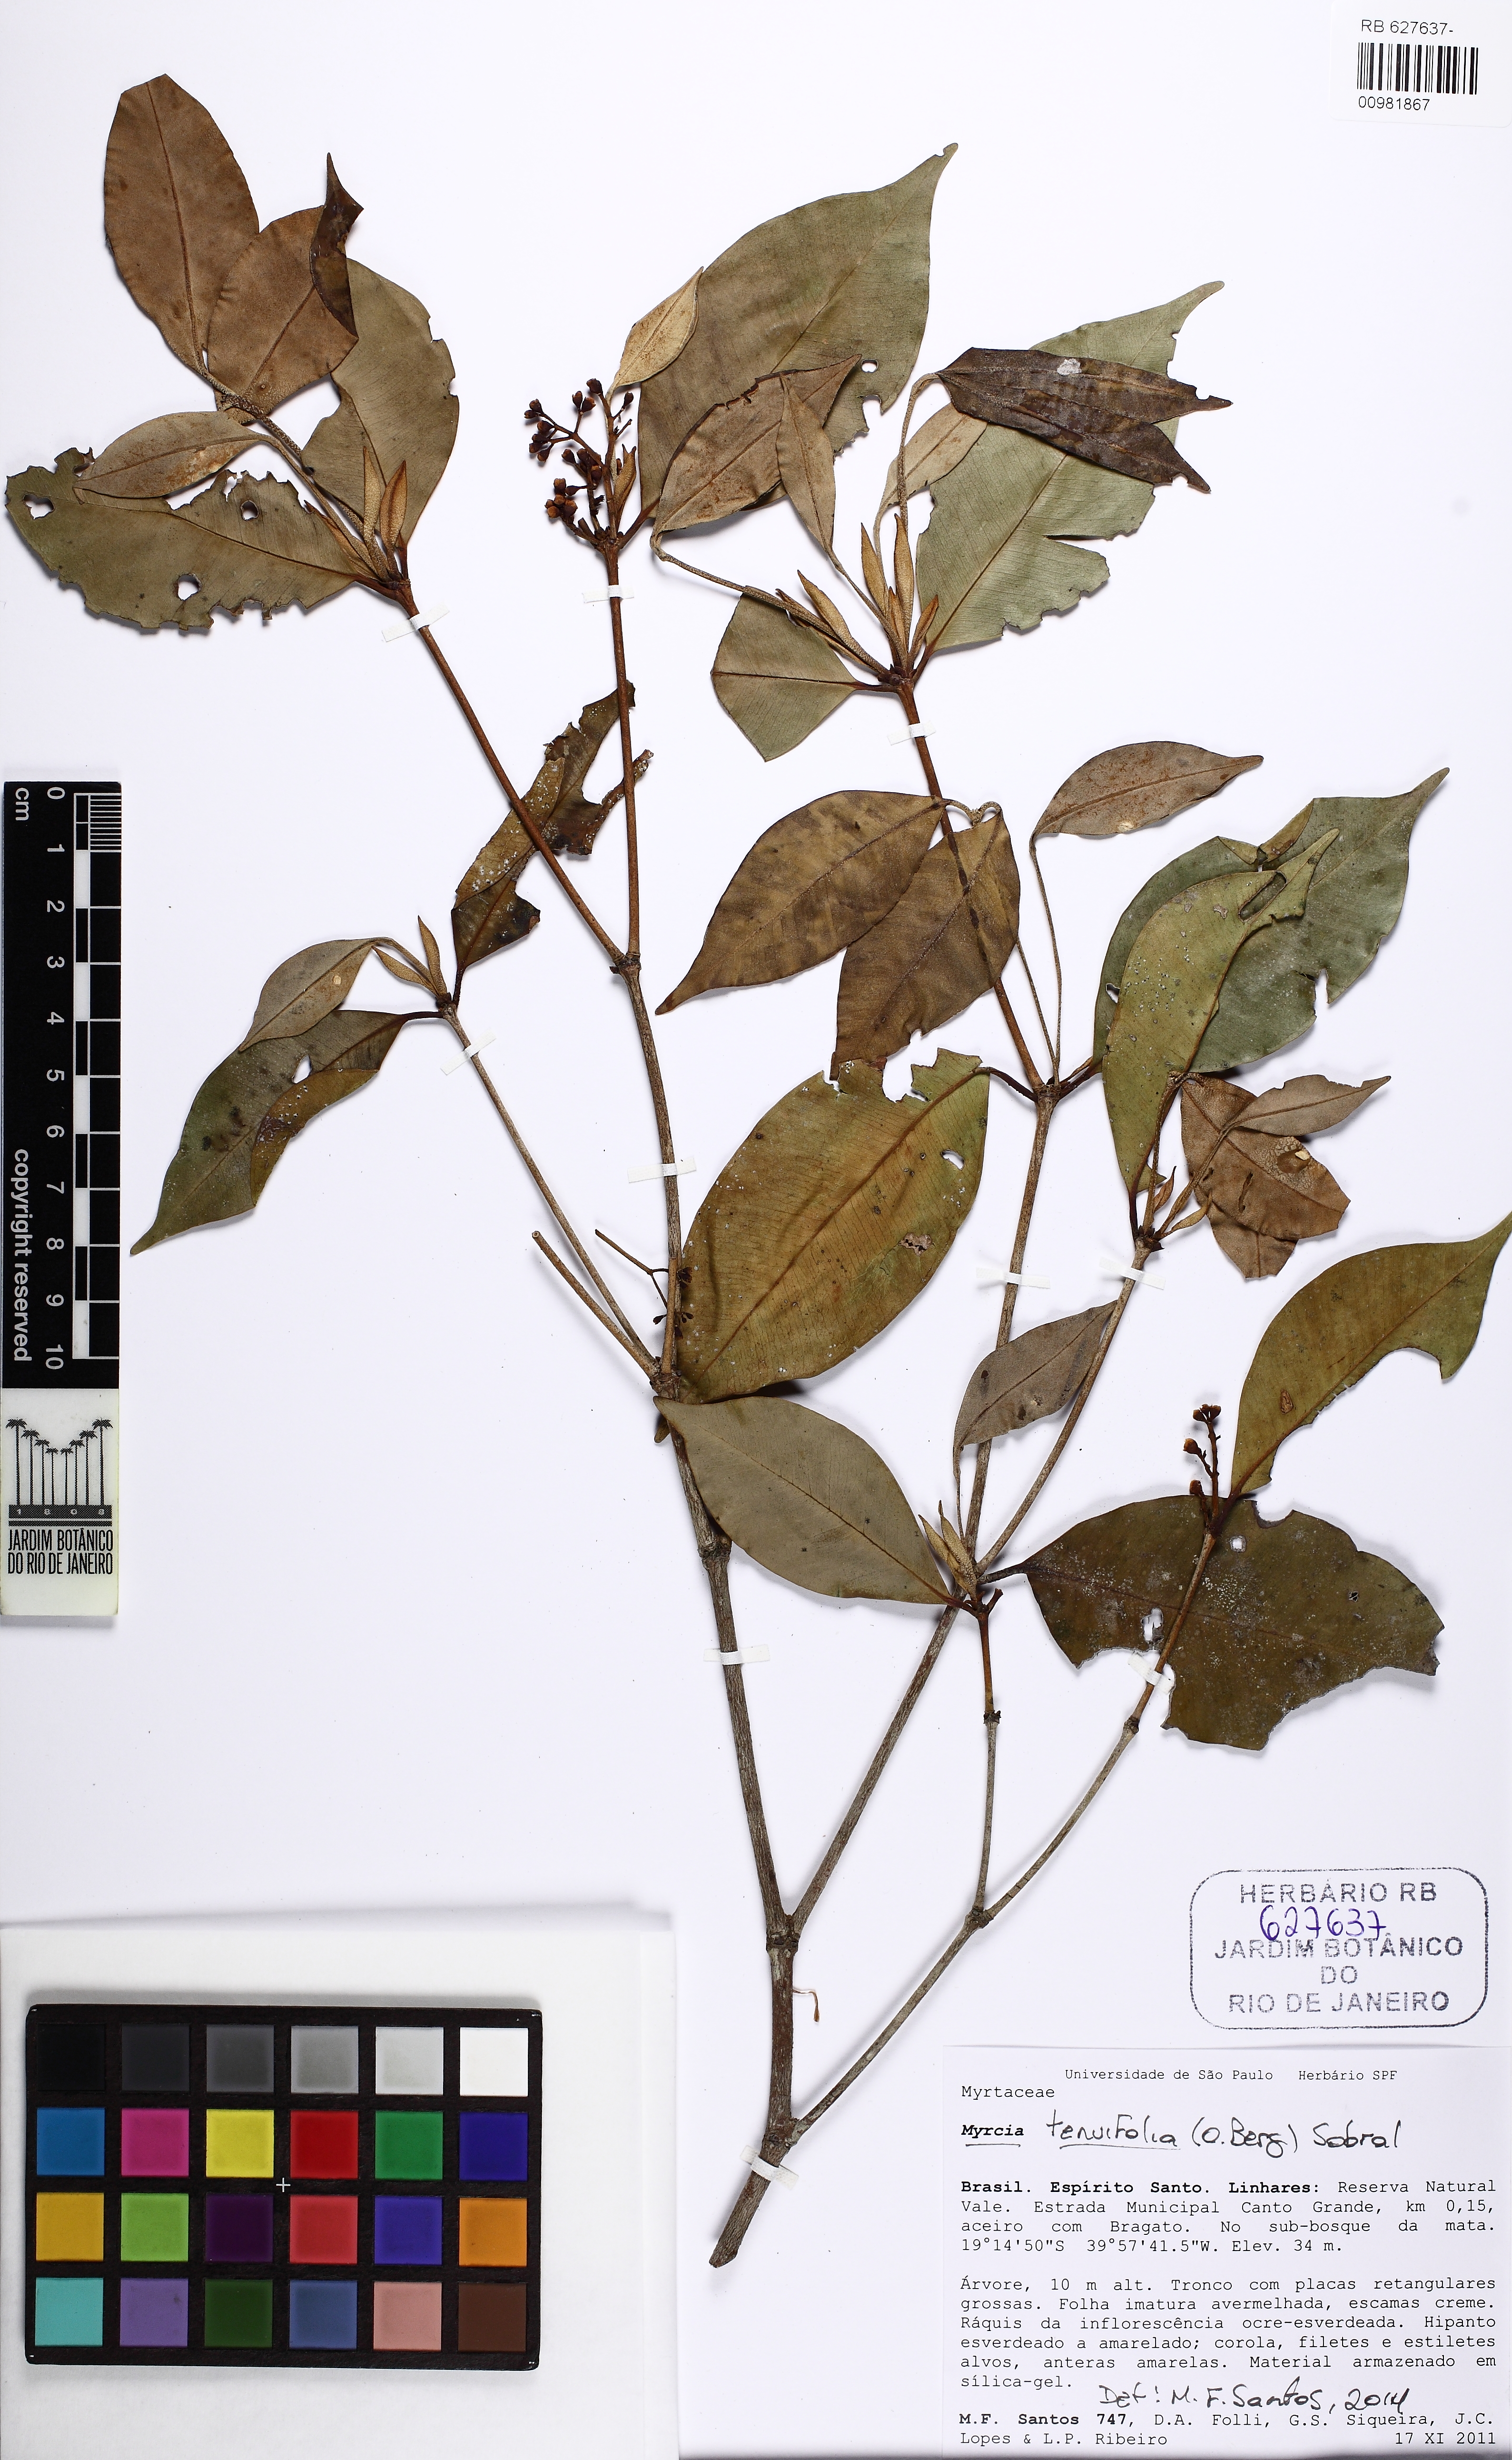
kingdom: Plantae
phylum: Tracheophyta
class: Magnoliopsida
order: Myrtales
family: Myrtaceae
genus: Myrcia
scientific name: Myrcia tenuifolia
